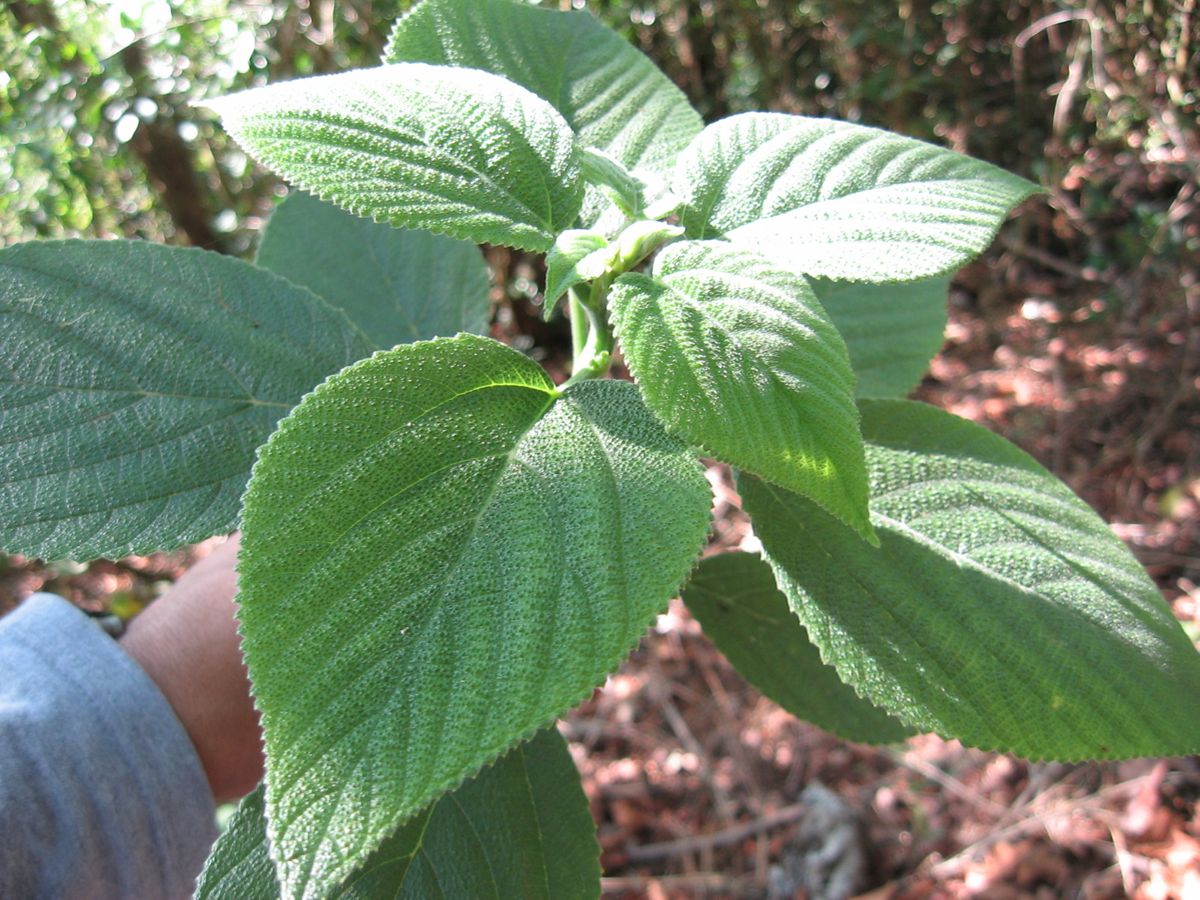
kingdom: Plantae
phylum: Tracheophyta
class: Magnoliopsida
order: Rosales
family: Urticaceae
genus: Urera
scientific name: Urera corallina
